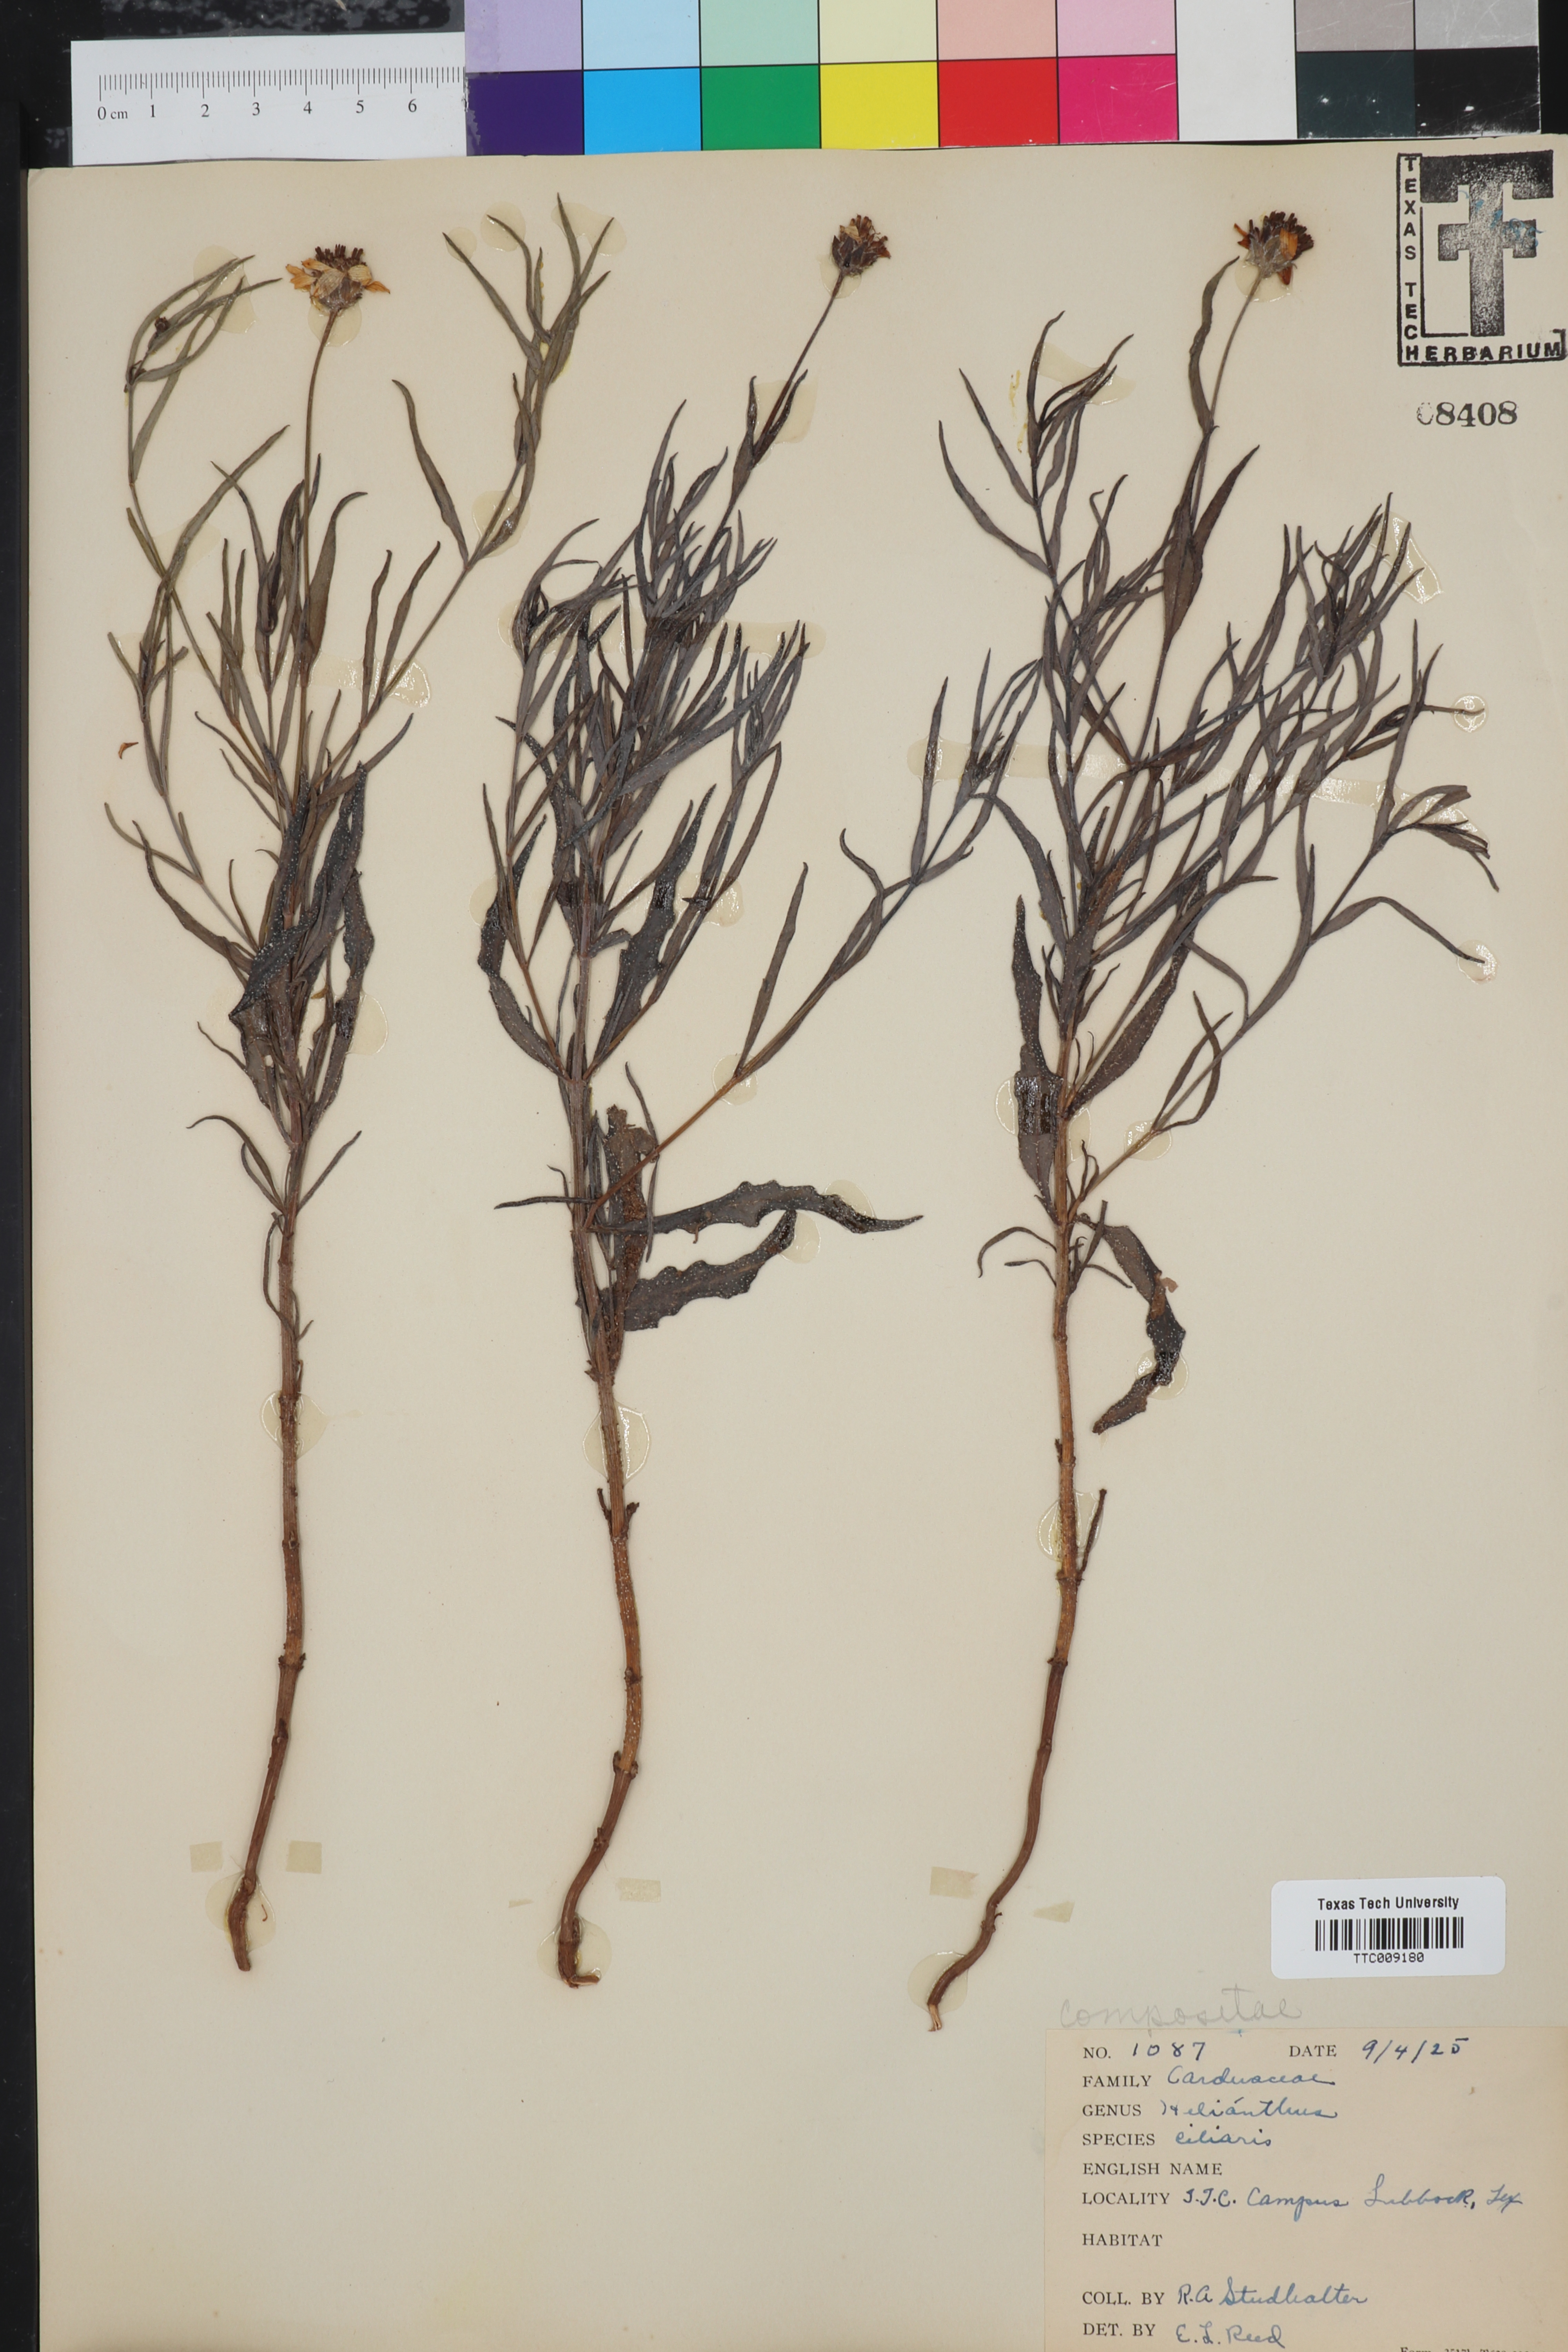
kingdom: Plantae
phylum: Tracheophyta
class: Magnoliopsida
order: Asterales
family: Asteraceae
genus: Helianthus
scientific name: Helianthus ciliaris
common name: Texas blueweed
